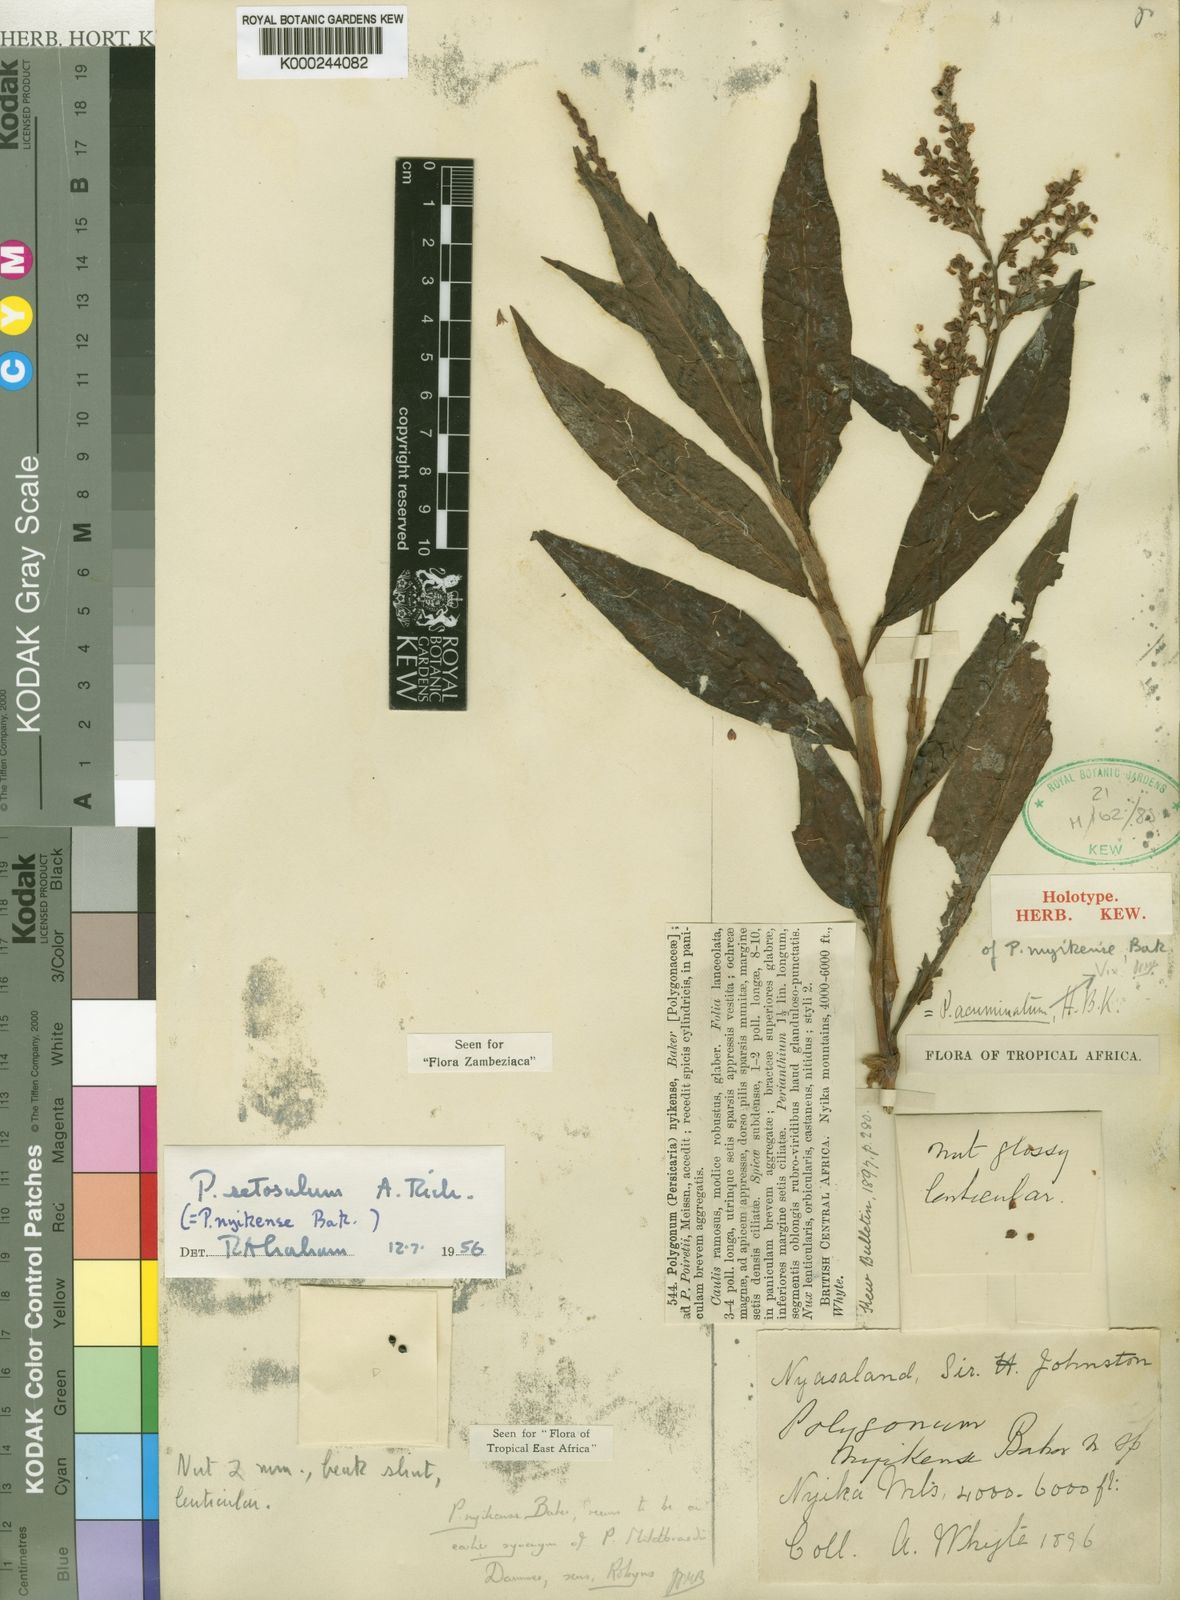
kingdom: Plantae
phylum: Tracheophyta
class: Magnoliopsida
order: Caryophyllales
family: Polygonaceae
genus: Persicaria
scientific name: Persicaria setosula
